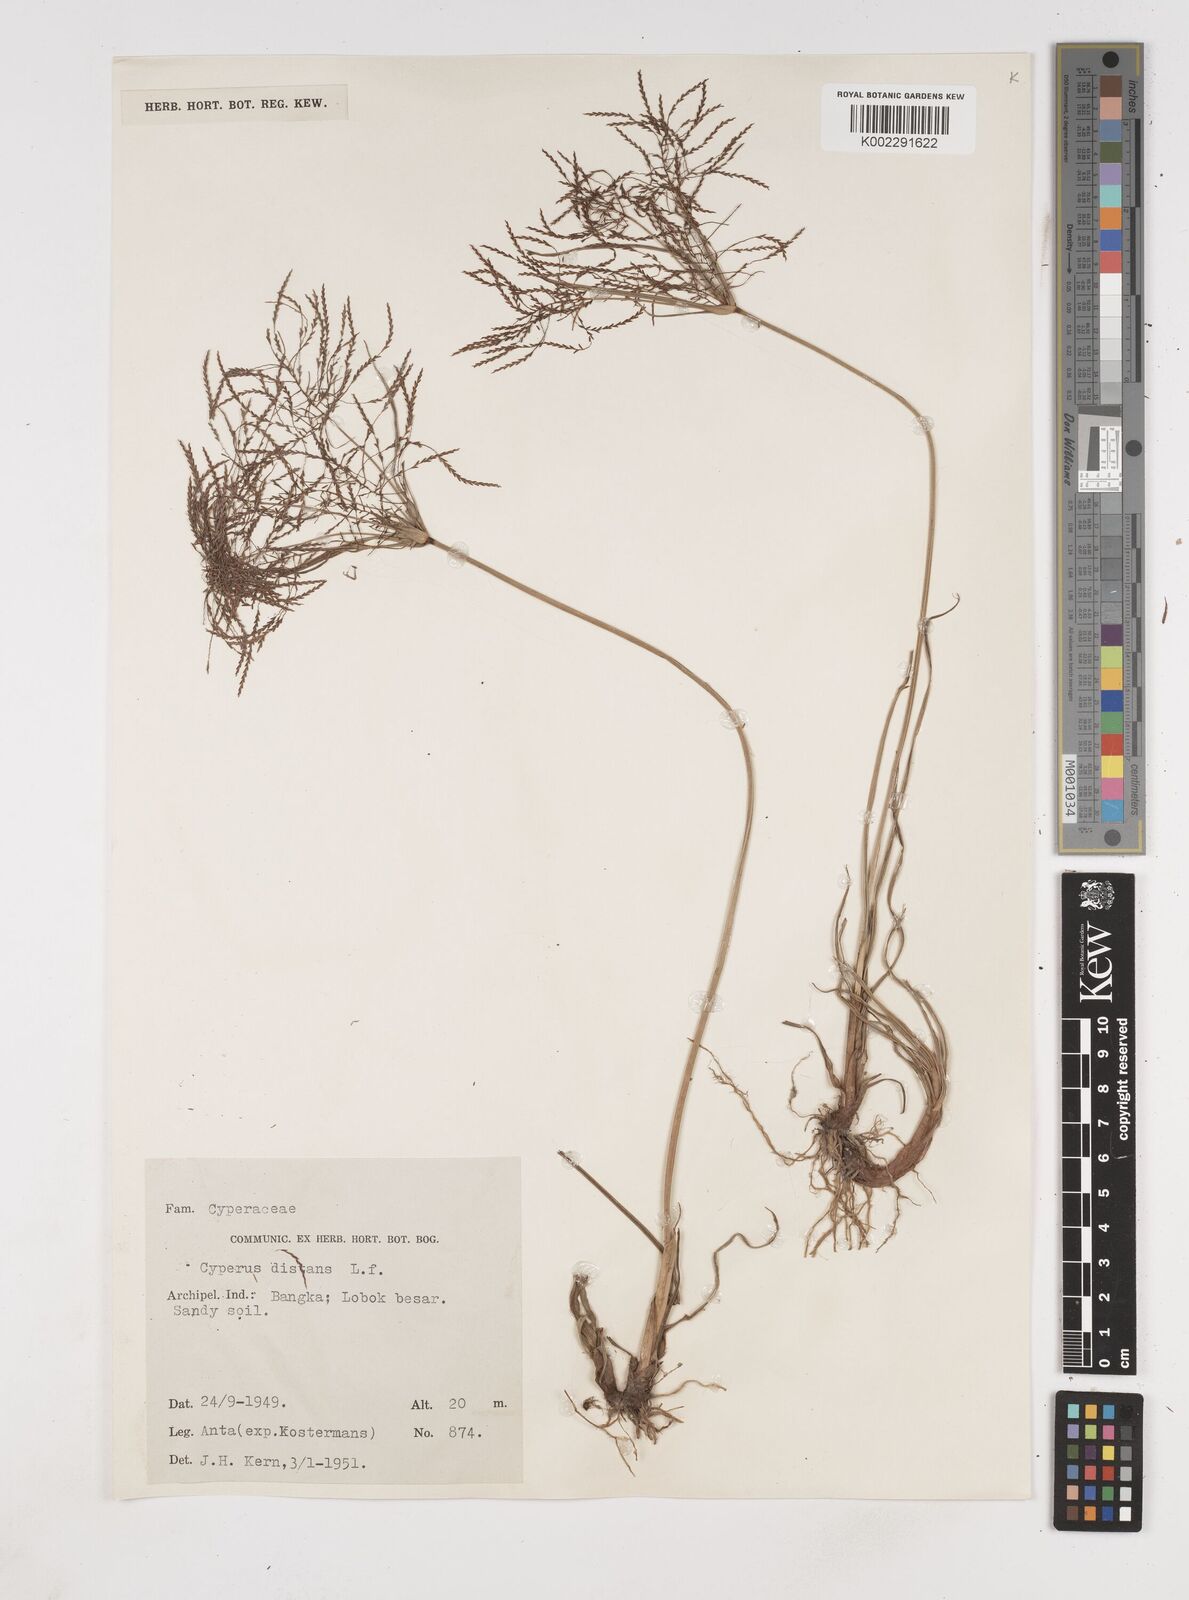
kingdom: Plantae
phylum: Tracheophyta
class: Liliopsida
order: Poales
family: Cyperaceae
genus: Cyperus
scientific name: Cyperus distans
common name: Slender cyperus
